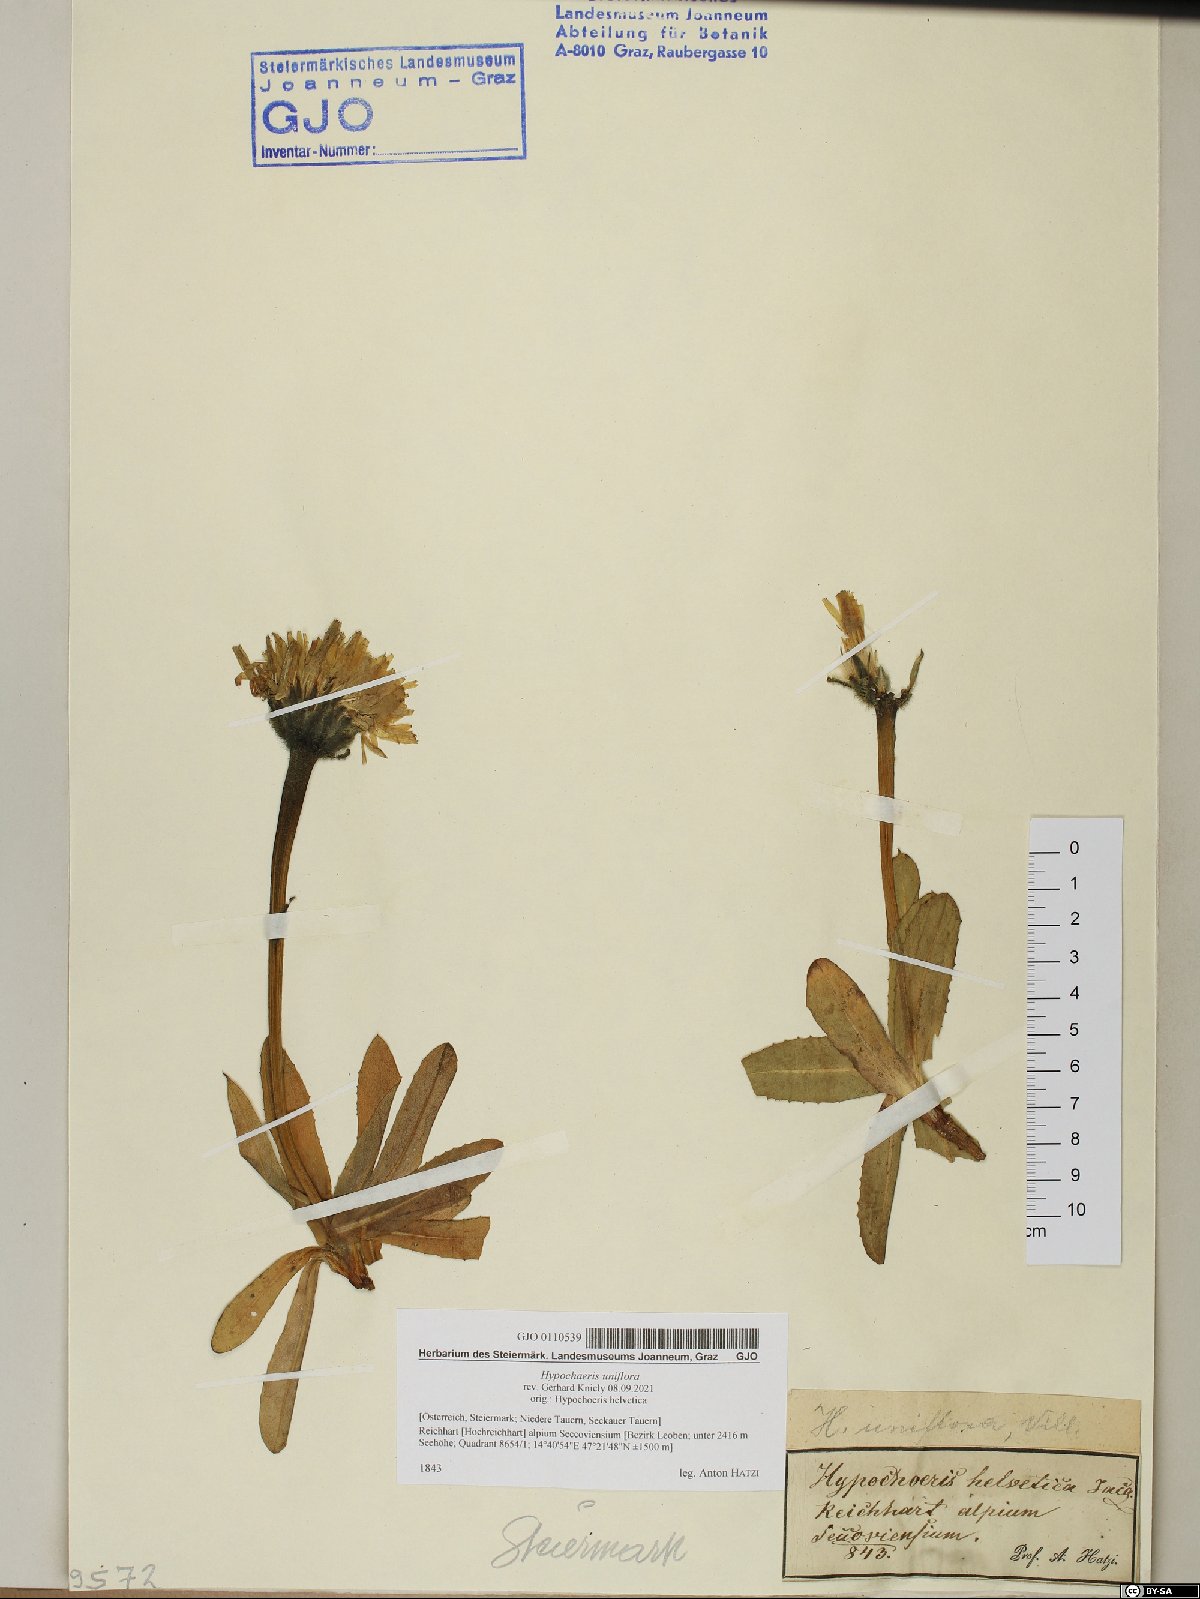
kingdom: Plantae
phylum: Tracheophyta
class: Magnoliopsida
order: Asterales
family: Asteraceae
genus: Trommsdorffia
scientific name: Trommsdorffia uniflora
